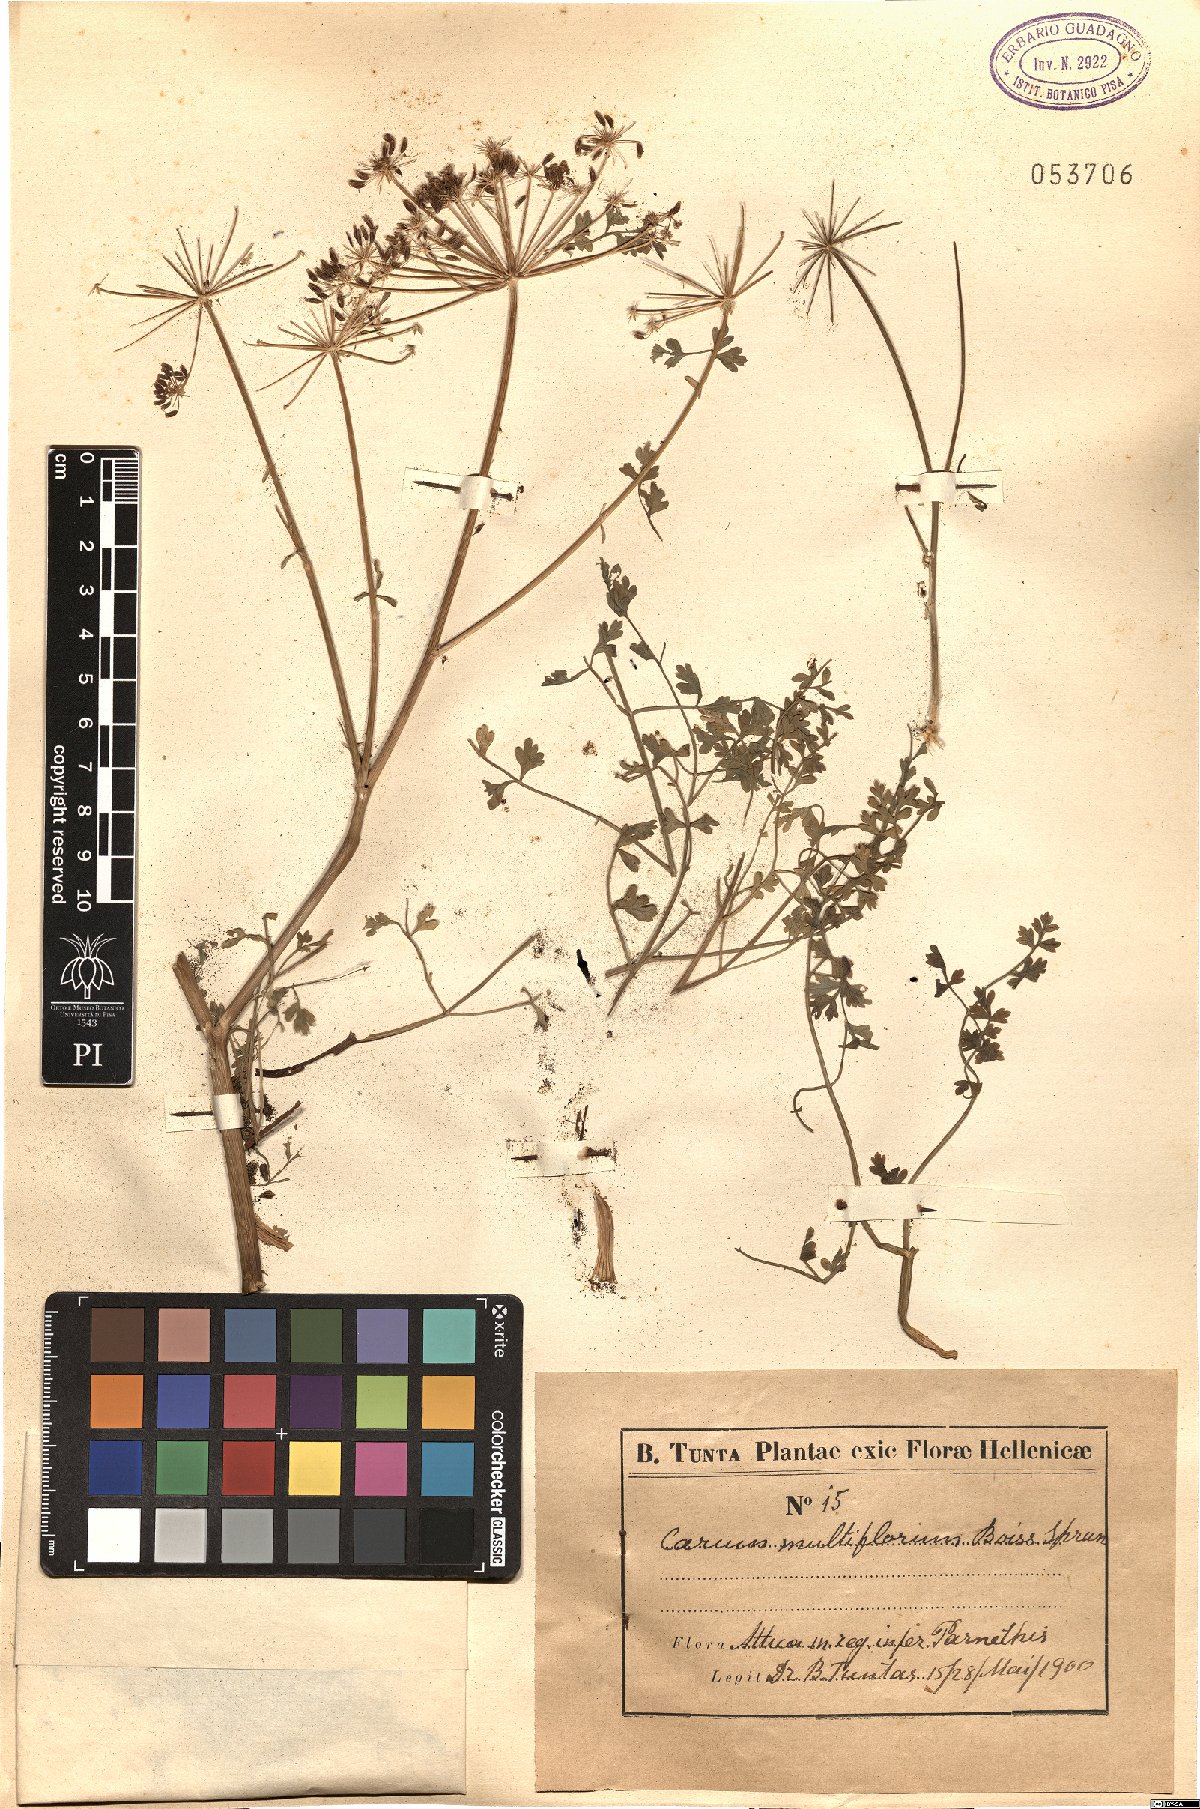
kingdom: Plantae
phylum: Tracheophyta
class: Magnoliopsida
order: Apiales
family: Apiaceae
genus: Hellenocarum
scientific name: Hellenocarum multiflorum
